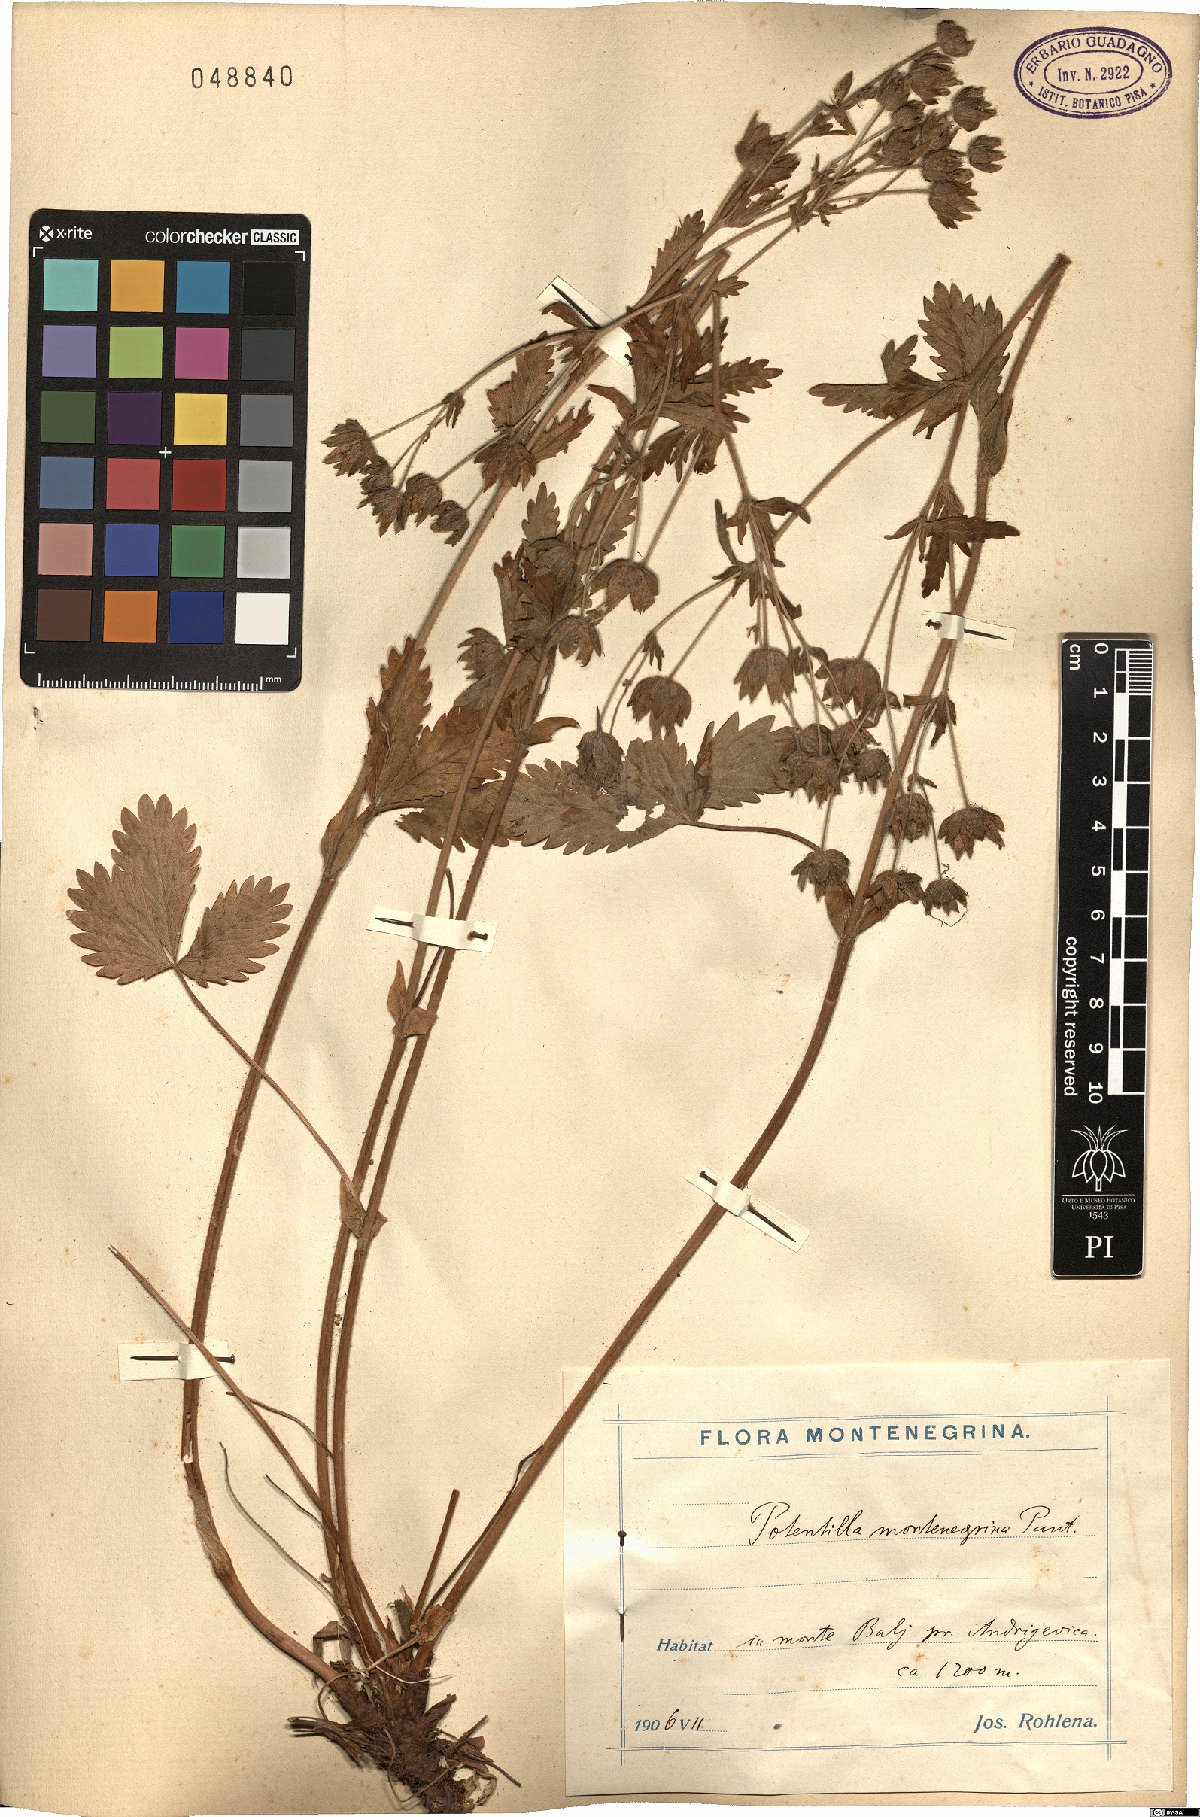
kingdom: Plantae
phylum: Tracheophyta
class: Magnoliopsida
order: Rosales
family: Rosaceae
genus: Potentilla
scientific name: Potentilla montenegrina
